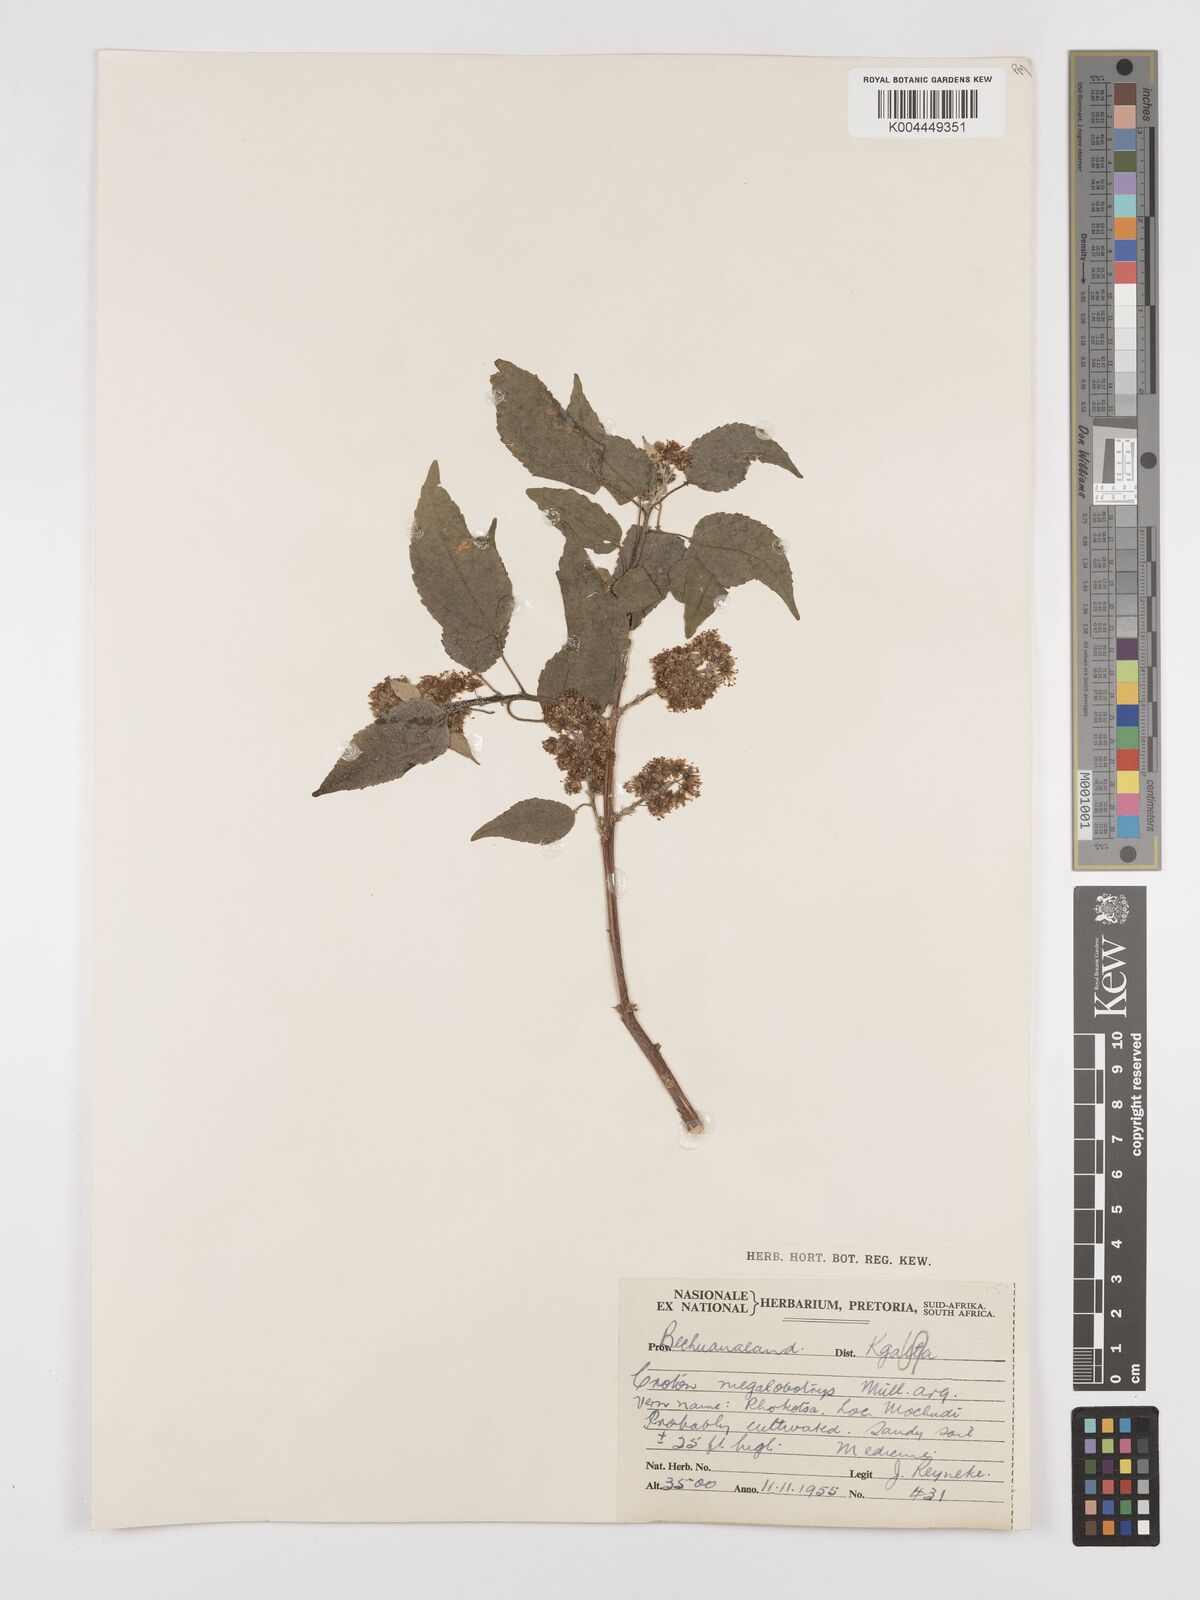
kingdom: Plantae
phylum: Tracheophyta
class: Magnoliopsida
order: Malpighiales
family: Euphorbiaceae
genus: Croton
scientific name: Croton megalobotrys
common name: Large fever berry
